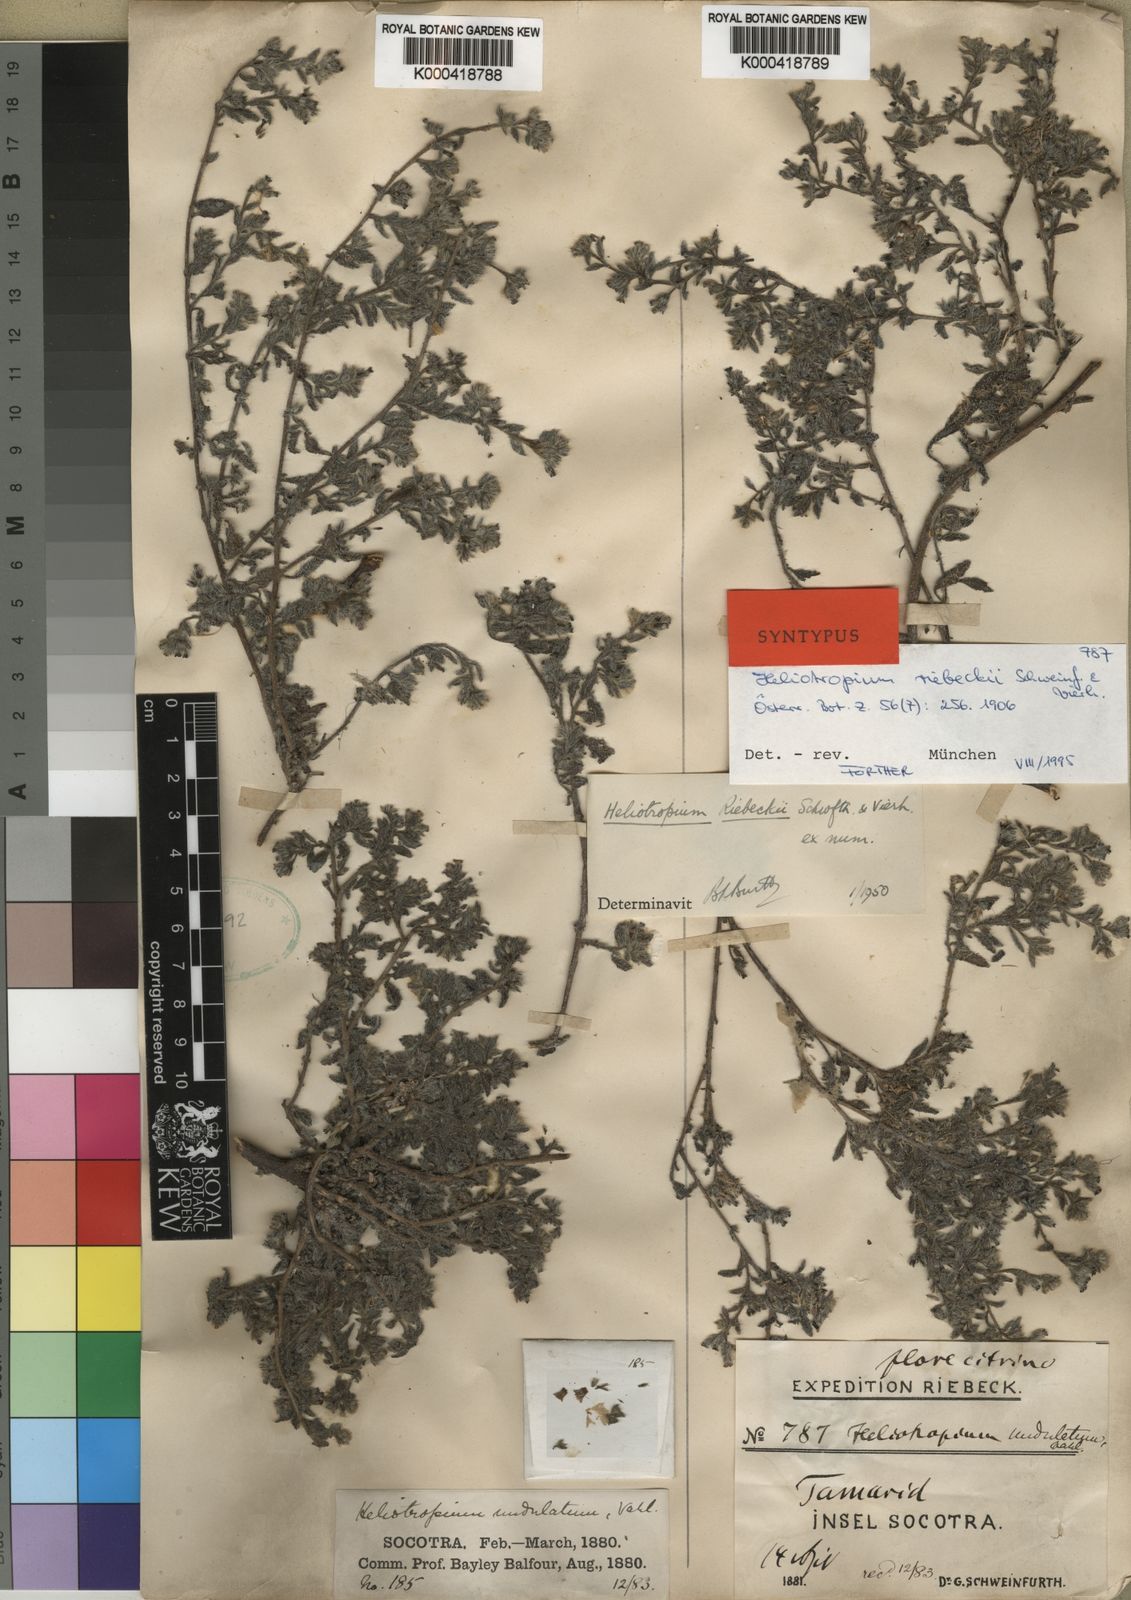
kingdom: Plantae
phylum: Tracheophyta
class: Magnoliopsida
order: Boraginales
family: Heliotropiaceae
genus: Heliotropium
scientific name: Heliotropium riebeckii
